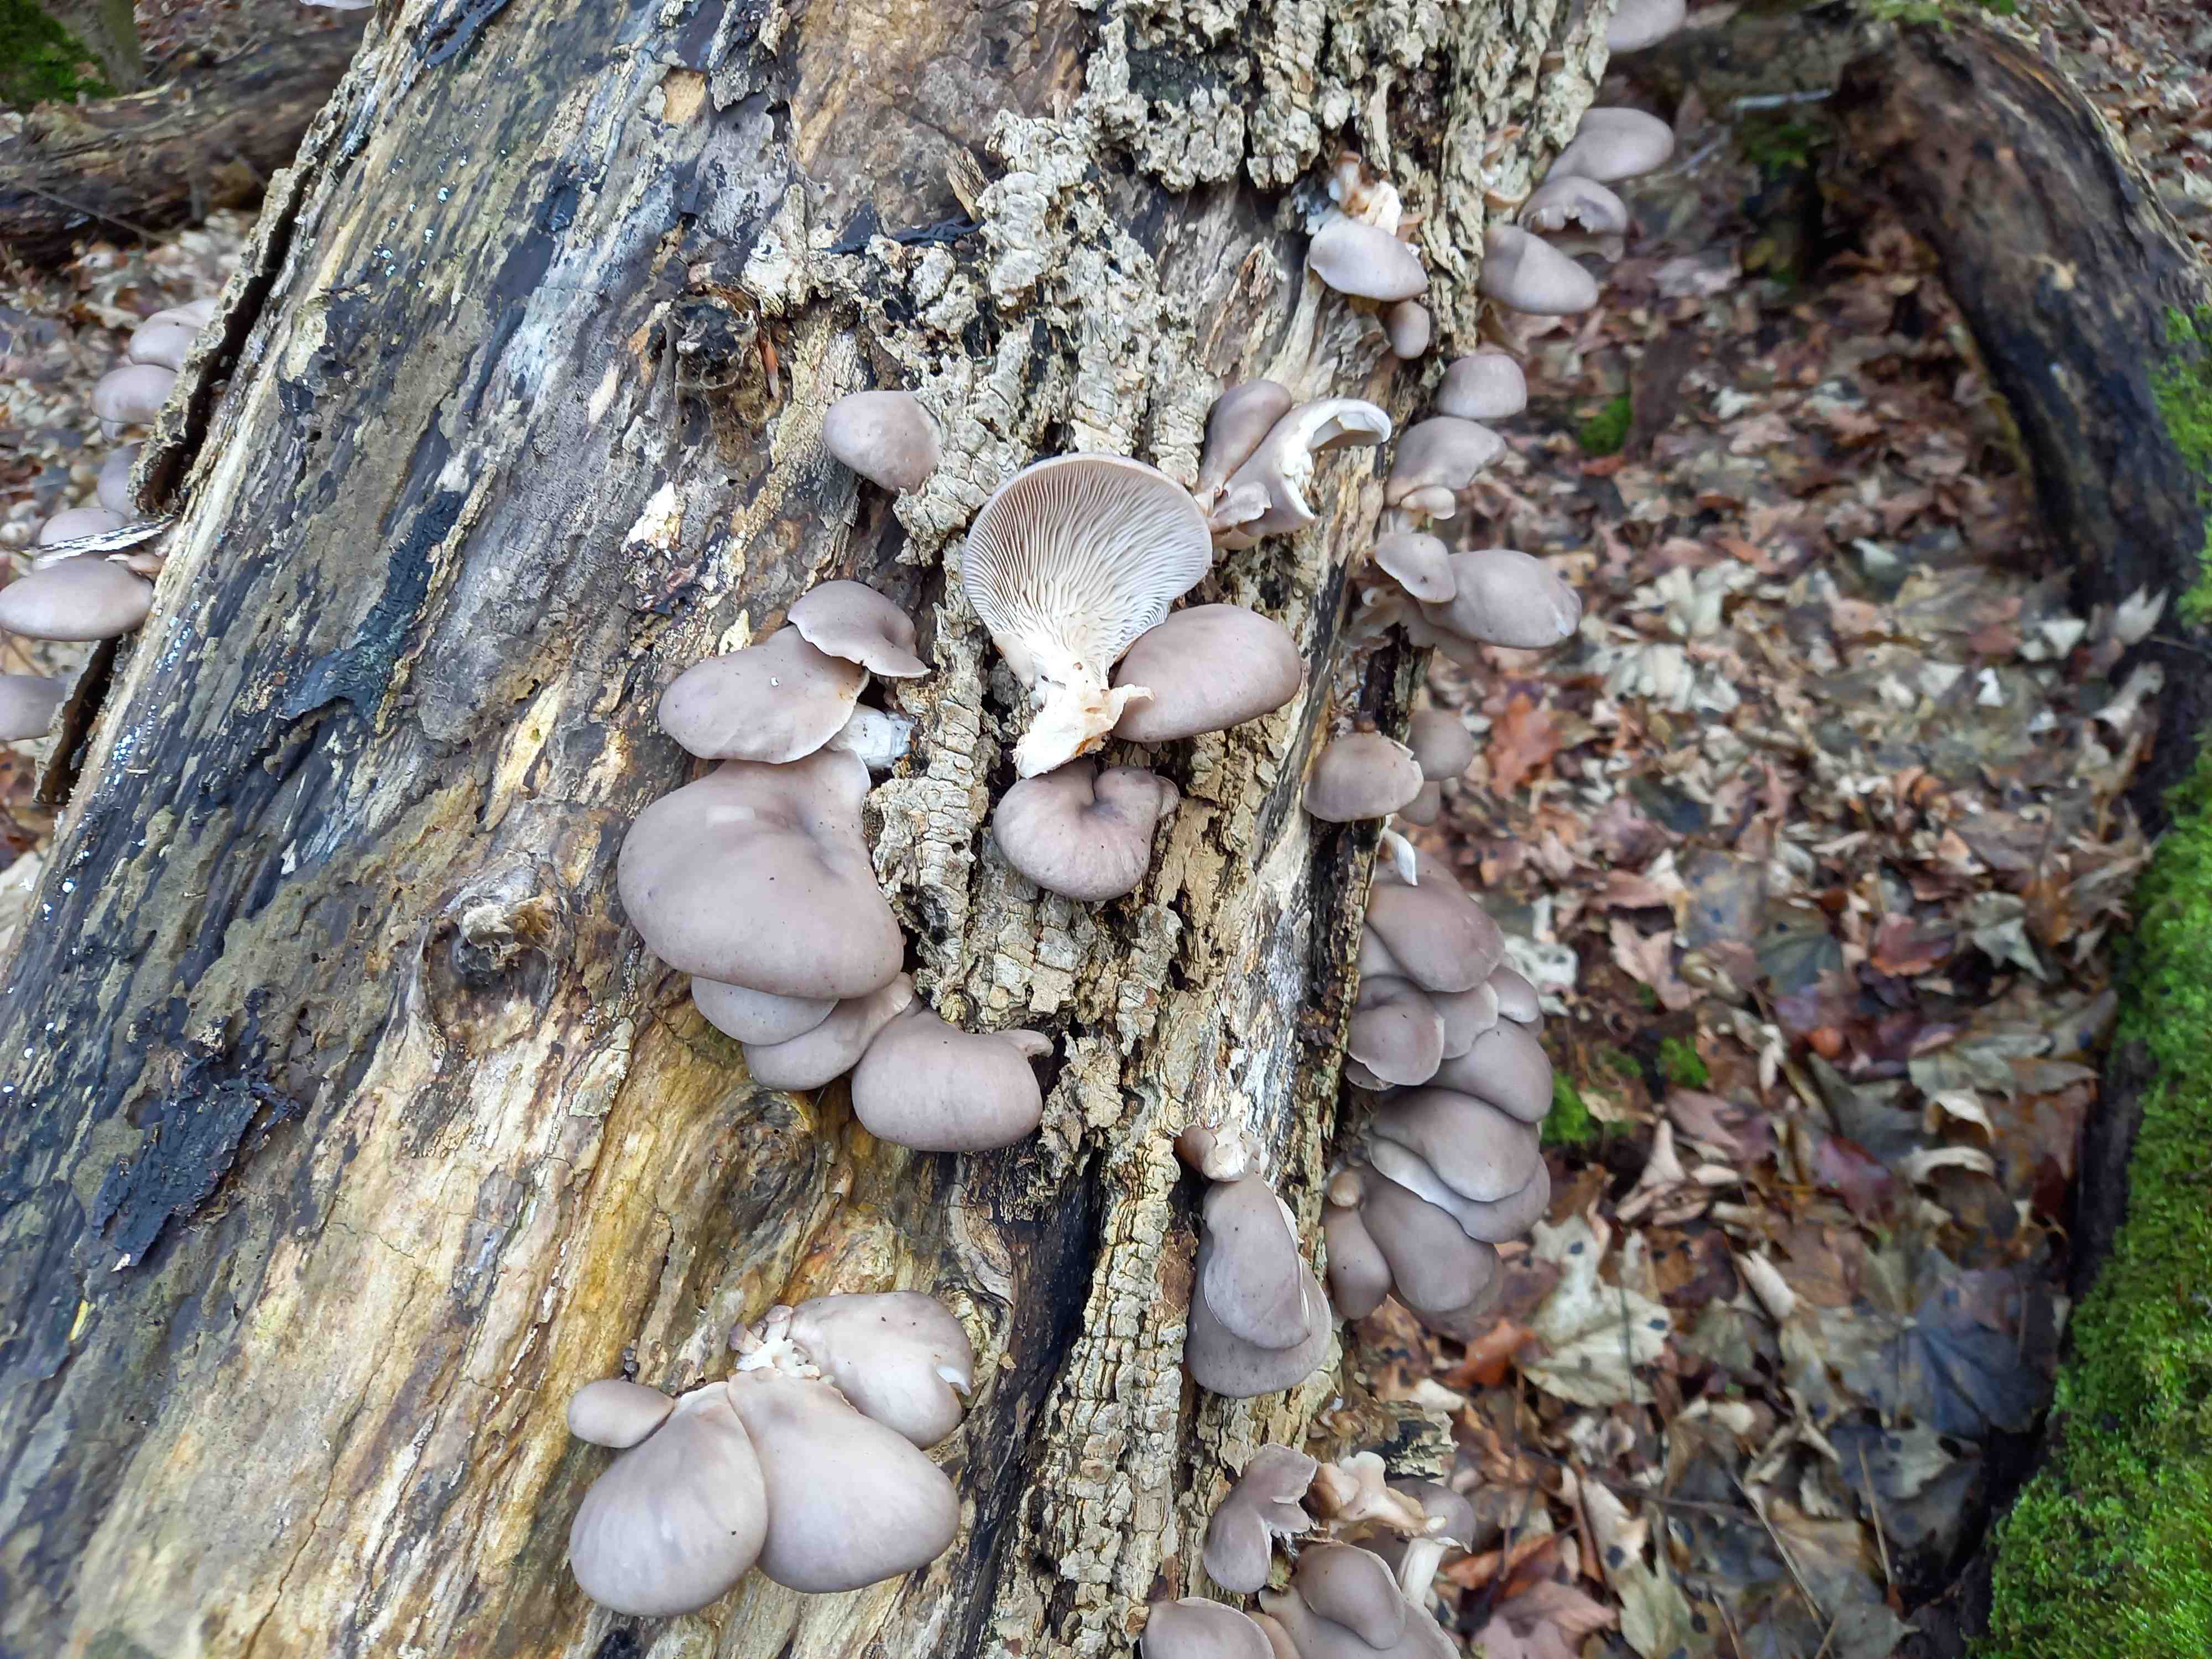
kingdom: Fungi
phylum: Basidiomycota
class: Agaricomycetes
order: Agaricales
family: Pleurotaceae
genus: Pleurotus
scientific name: Pleurotus ostreatus
